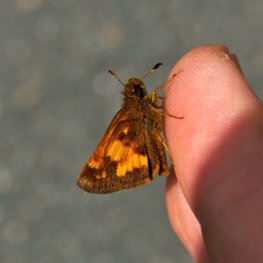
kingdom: Animalia
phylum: Arthropoda
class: Insecta
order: Lepidoptera
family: Hesperiidae
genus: Lon
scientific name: Lon hobomok
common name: Hobomok Skipper
